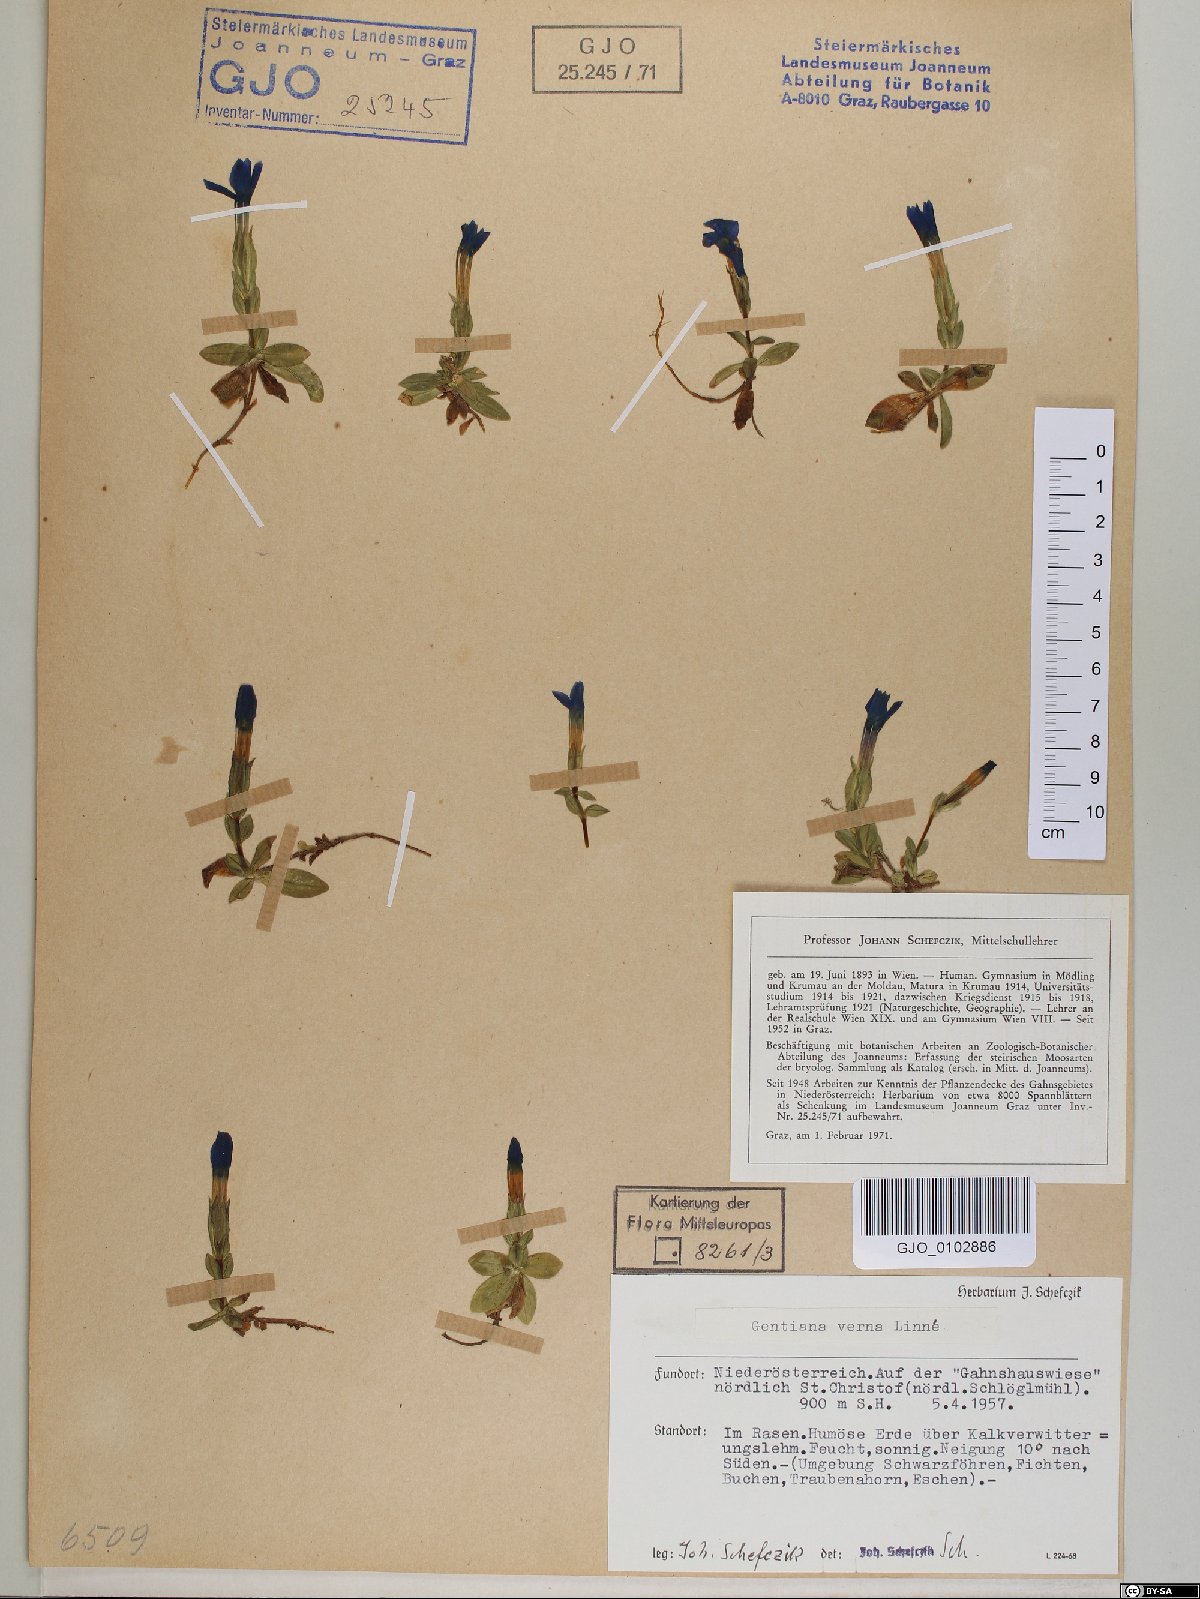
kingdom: Plantae
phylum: Tracheophyta
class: Magnoliopsida
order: Gentianales
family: Gentianaceae
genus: Gentiana
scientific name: Gentiana verna
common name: Spring gentian
